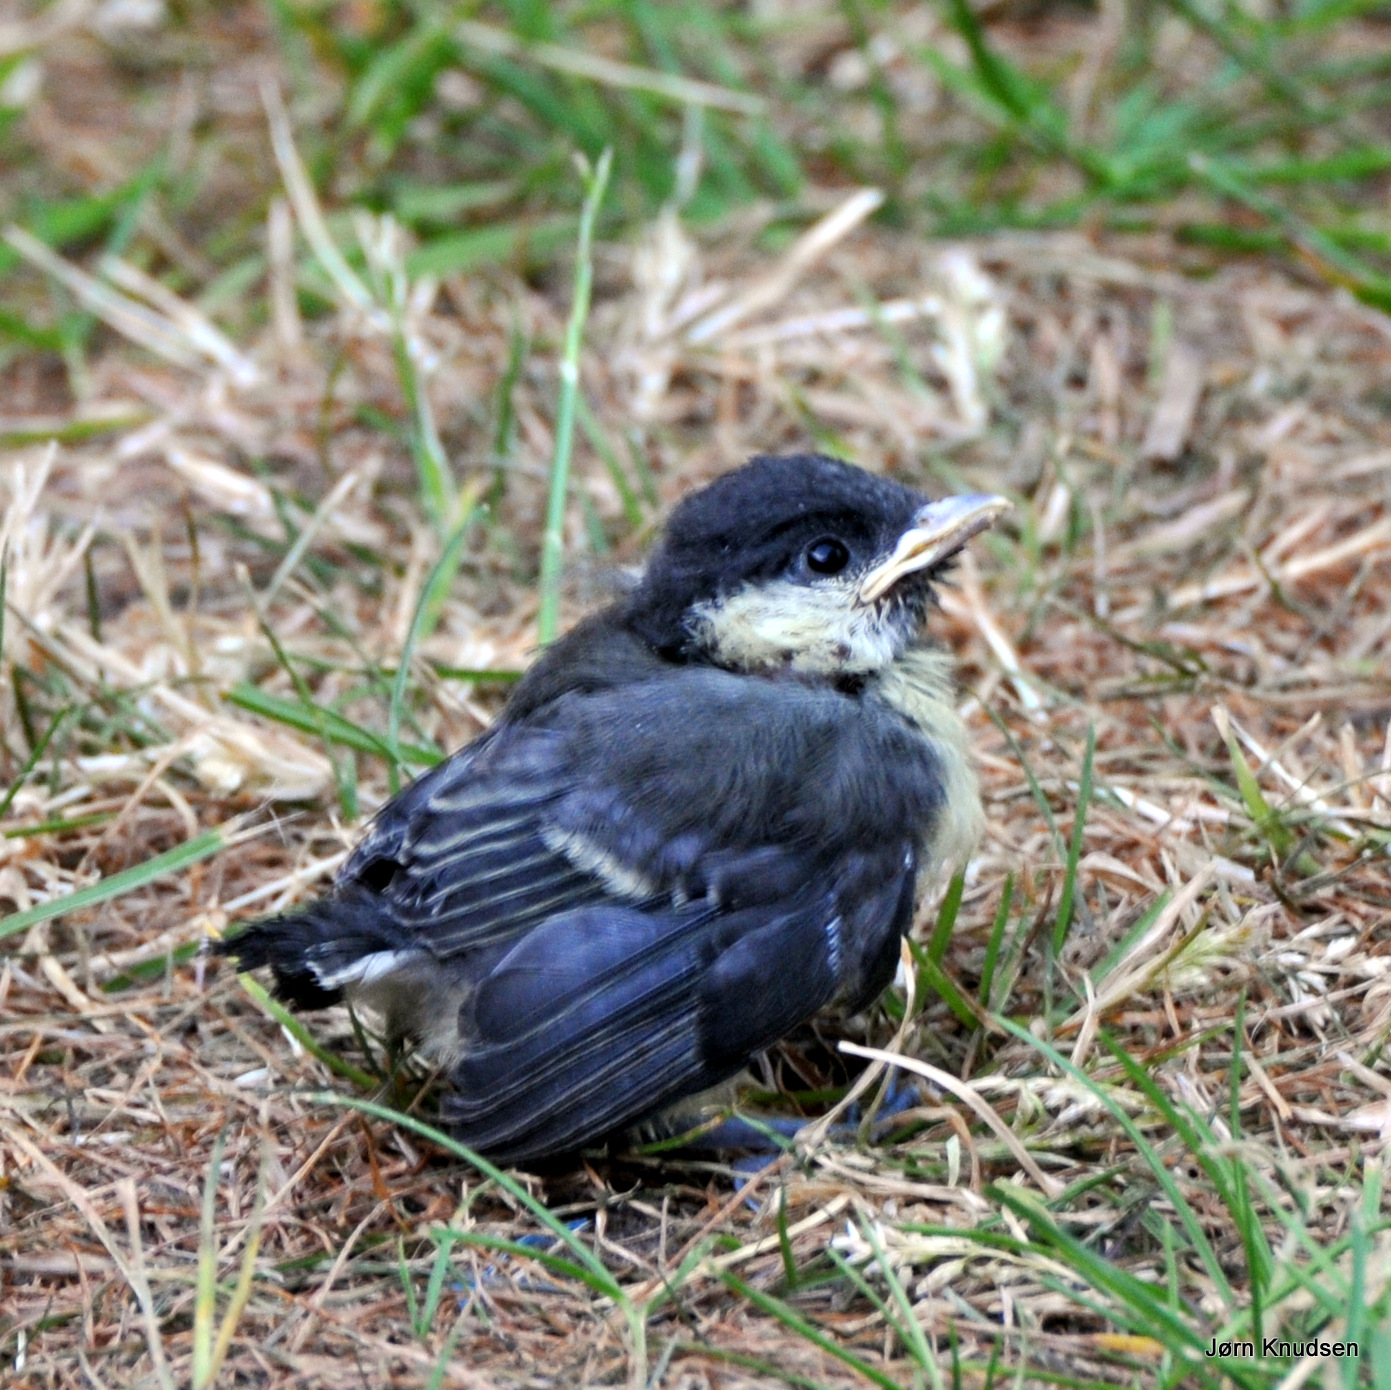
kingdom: Animalia
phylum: Chordata
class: Aves
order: Passeriformes
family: Paridae
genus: Parus
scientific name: Parus major
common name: Musvit
